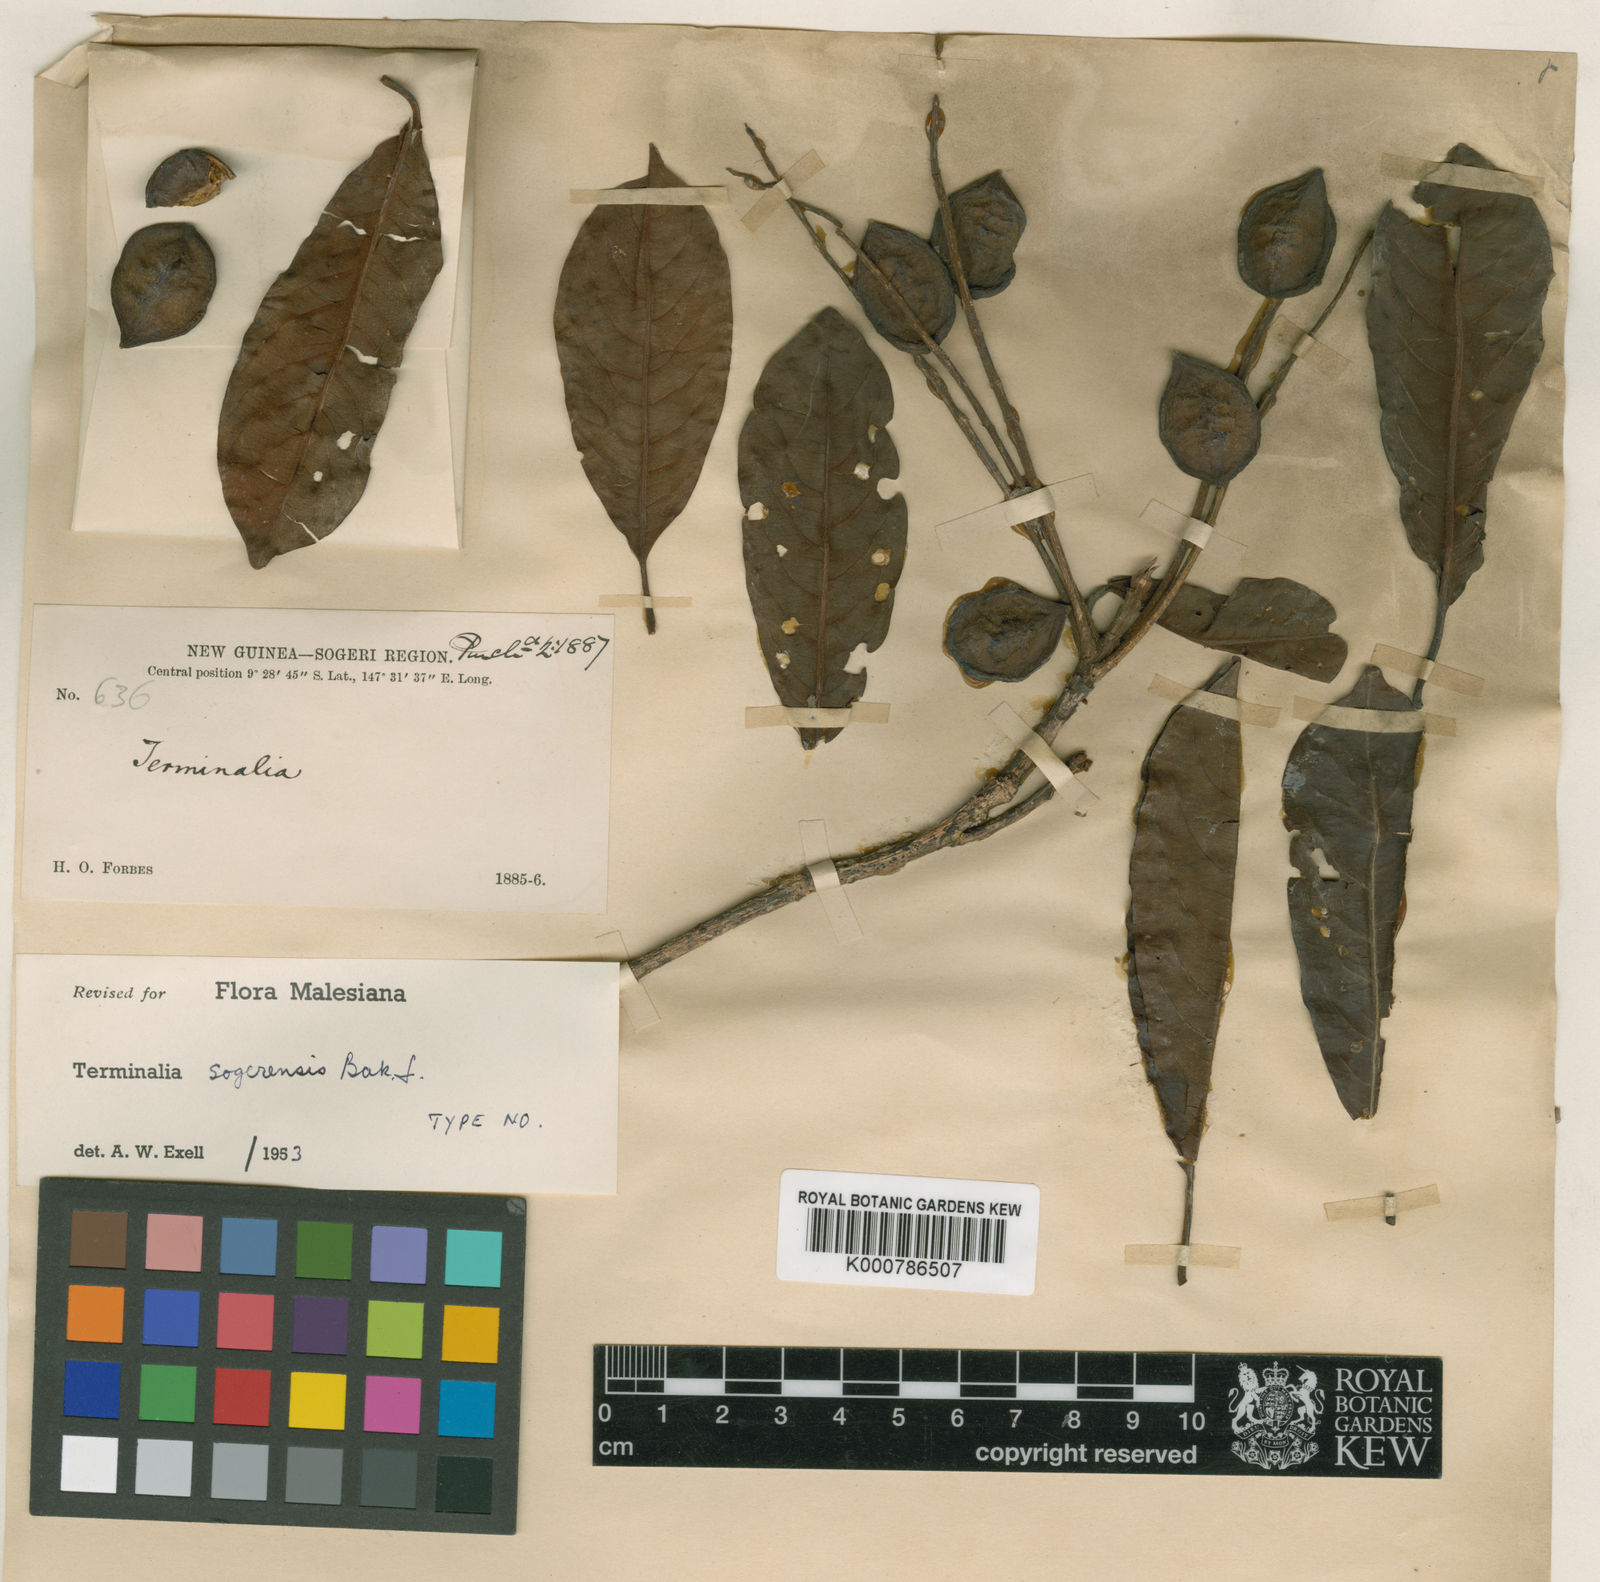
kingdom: Plantae
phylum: Tracheophyta
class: Magnoliopsida
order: Myrtales
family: Combretaceae
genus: Terminalia
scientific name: Terminalia
